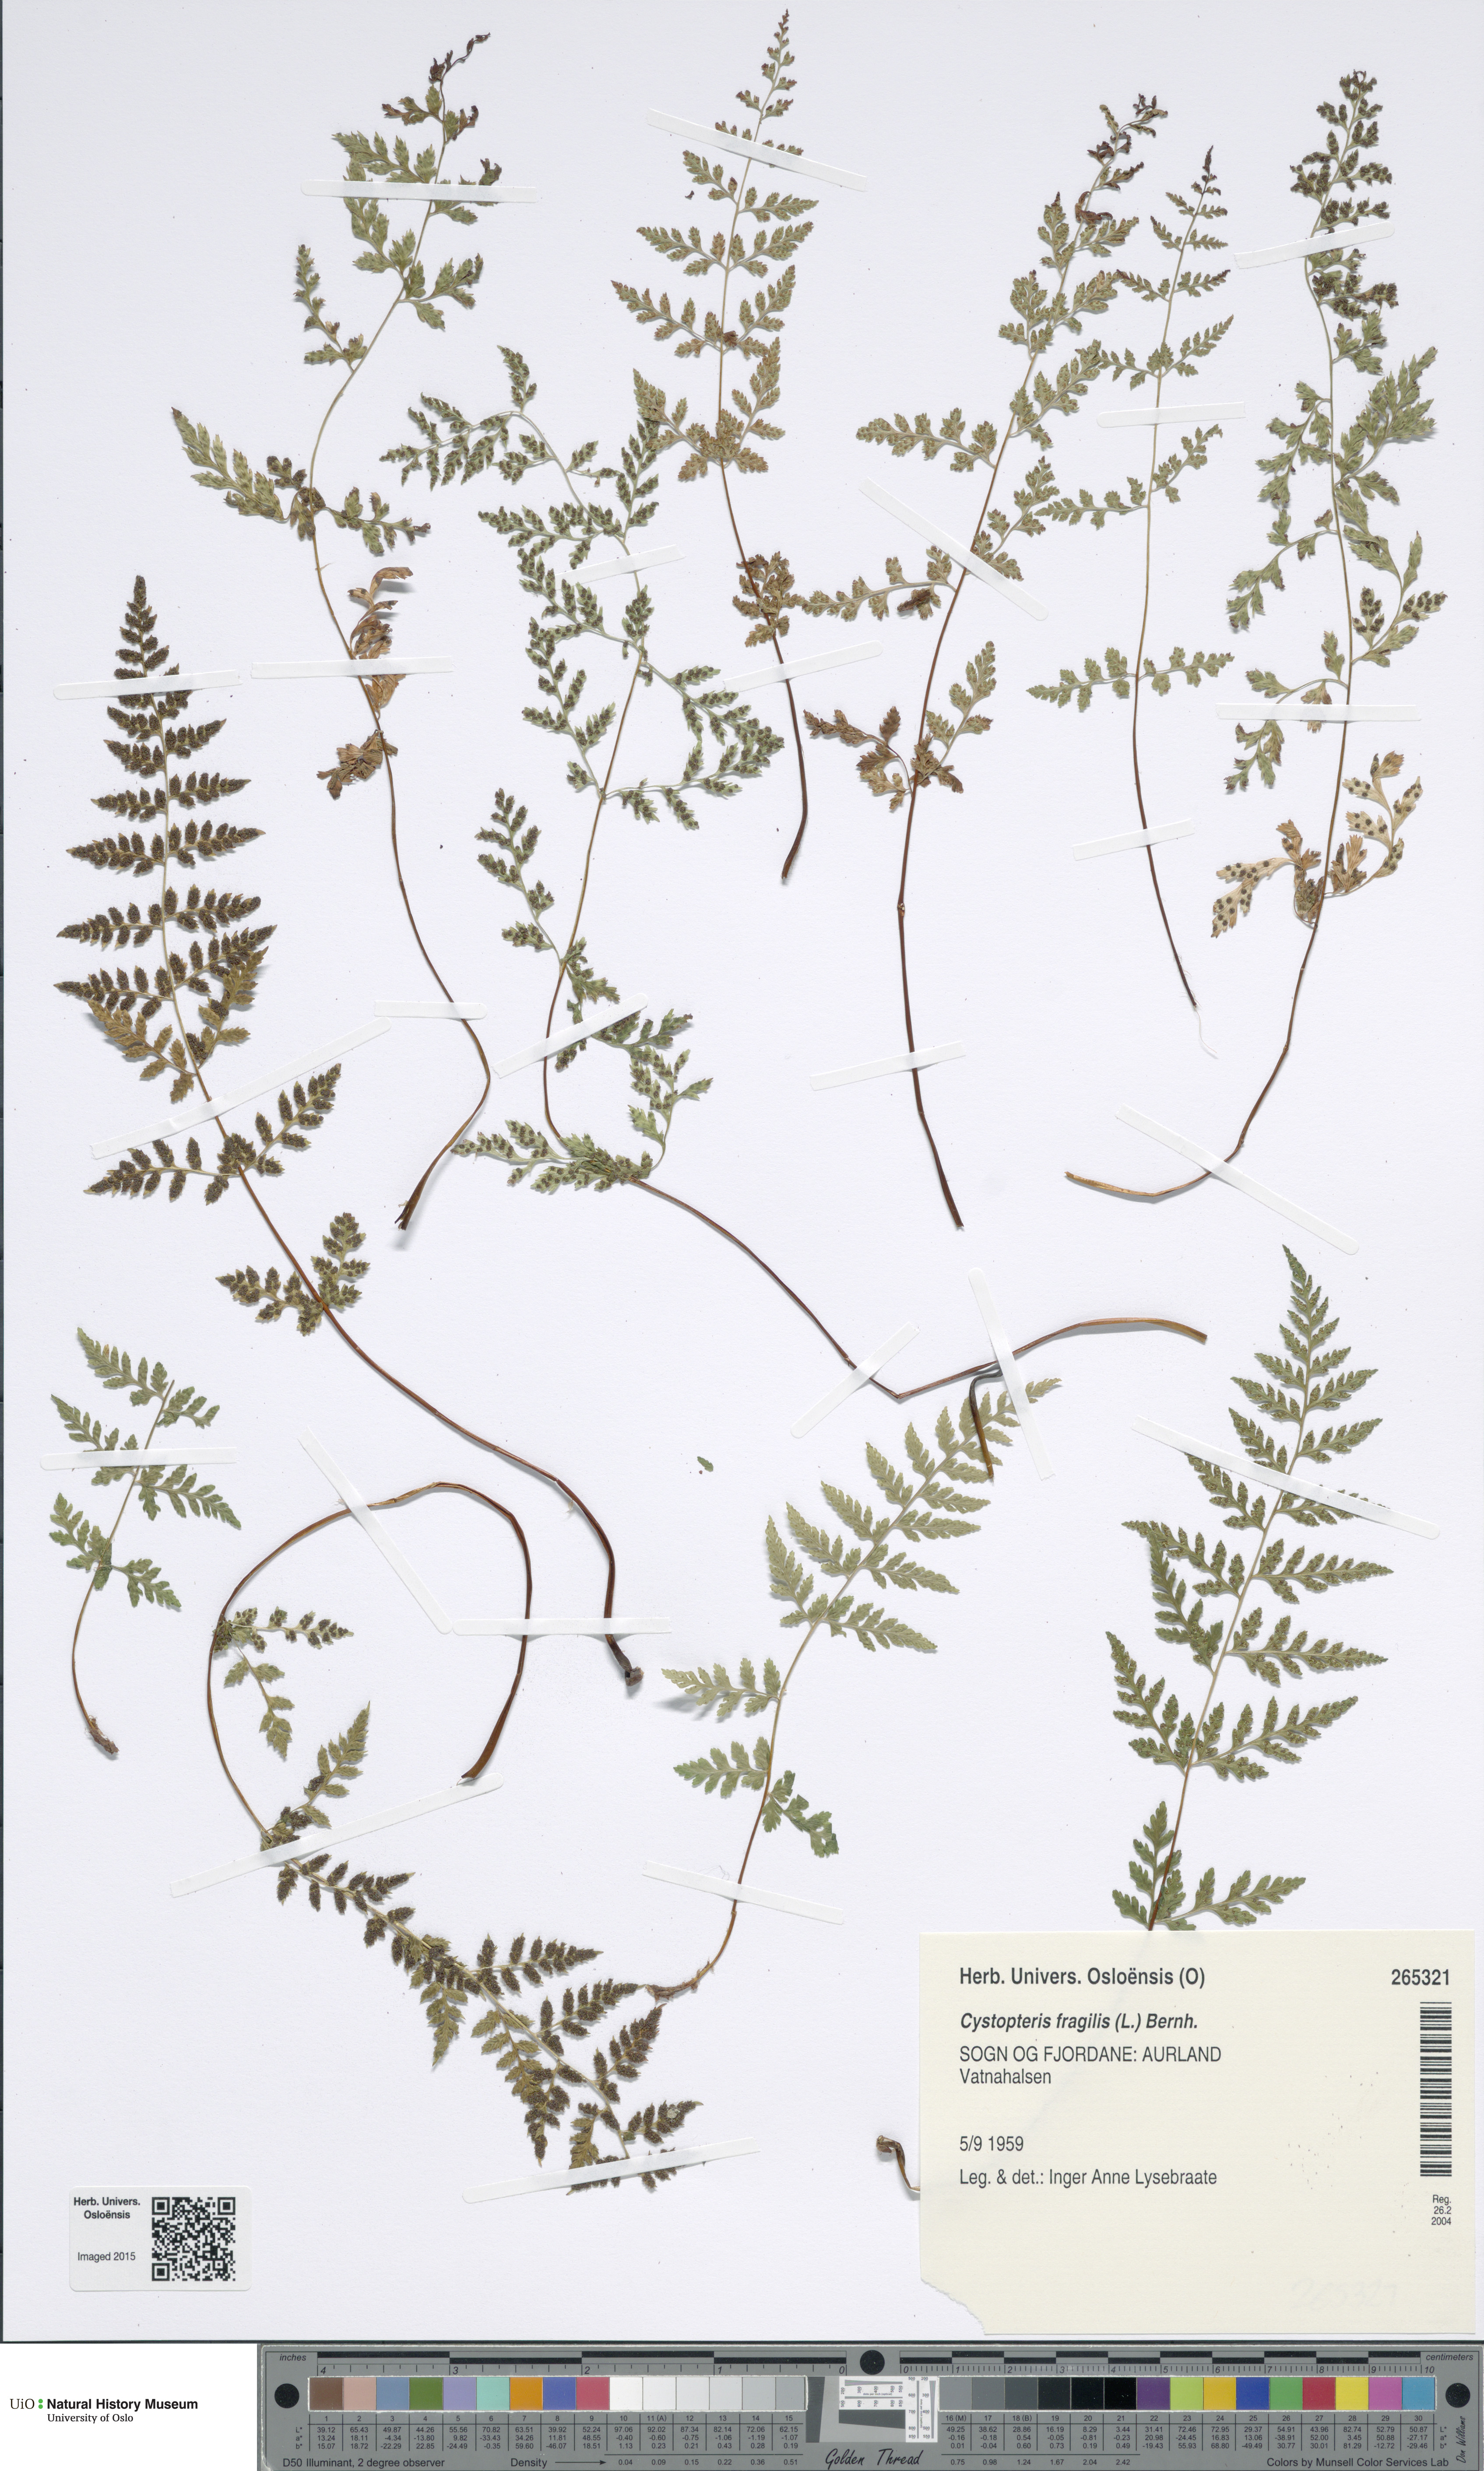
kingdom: Plantae
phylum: Tracheophyta
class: Polypodiopsida
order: Polypodiales
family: Cystopteridaceae
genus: Cystopteris
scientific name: Cystopteris fragilis
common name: Brittle bladder fern
